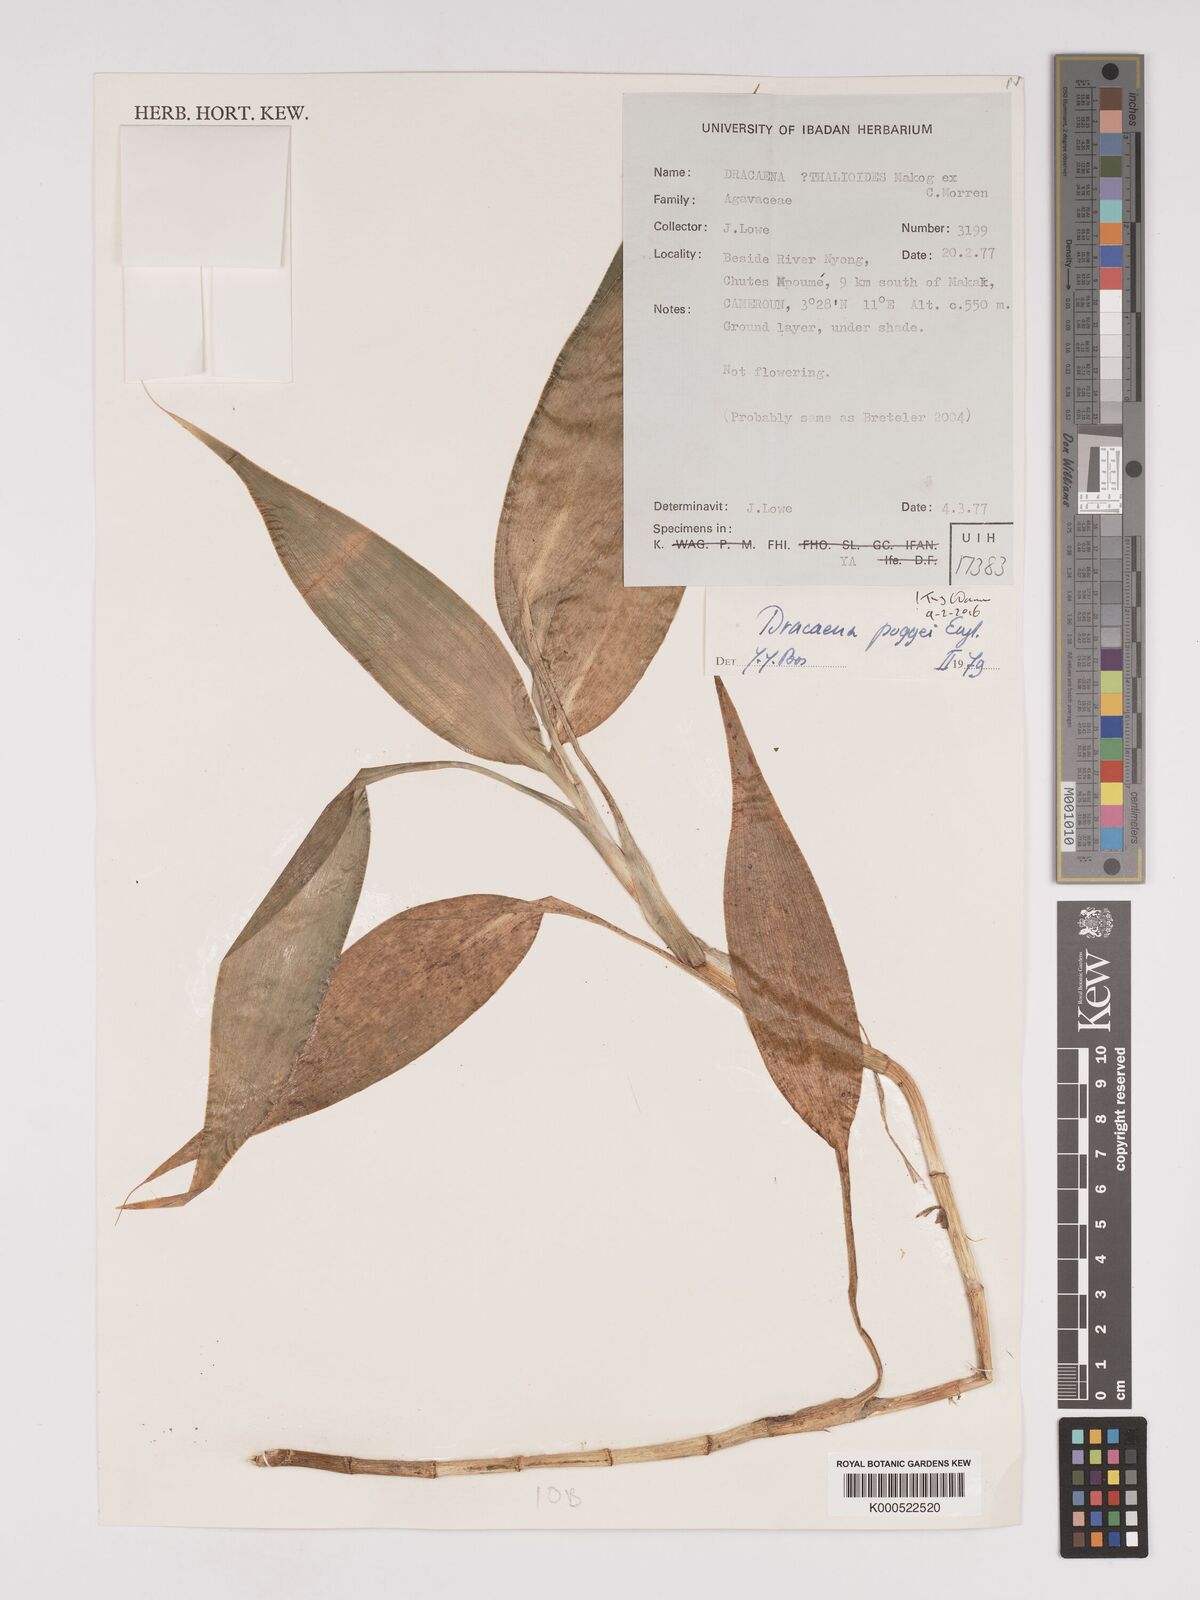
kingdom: Plantae
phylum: Tracheophyta
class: Liliopsida
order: Asparagales
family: Asparagaceae
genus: Dracaena
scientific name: Dracaena sanderiana
